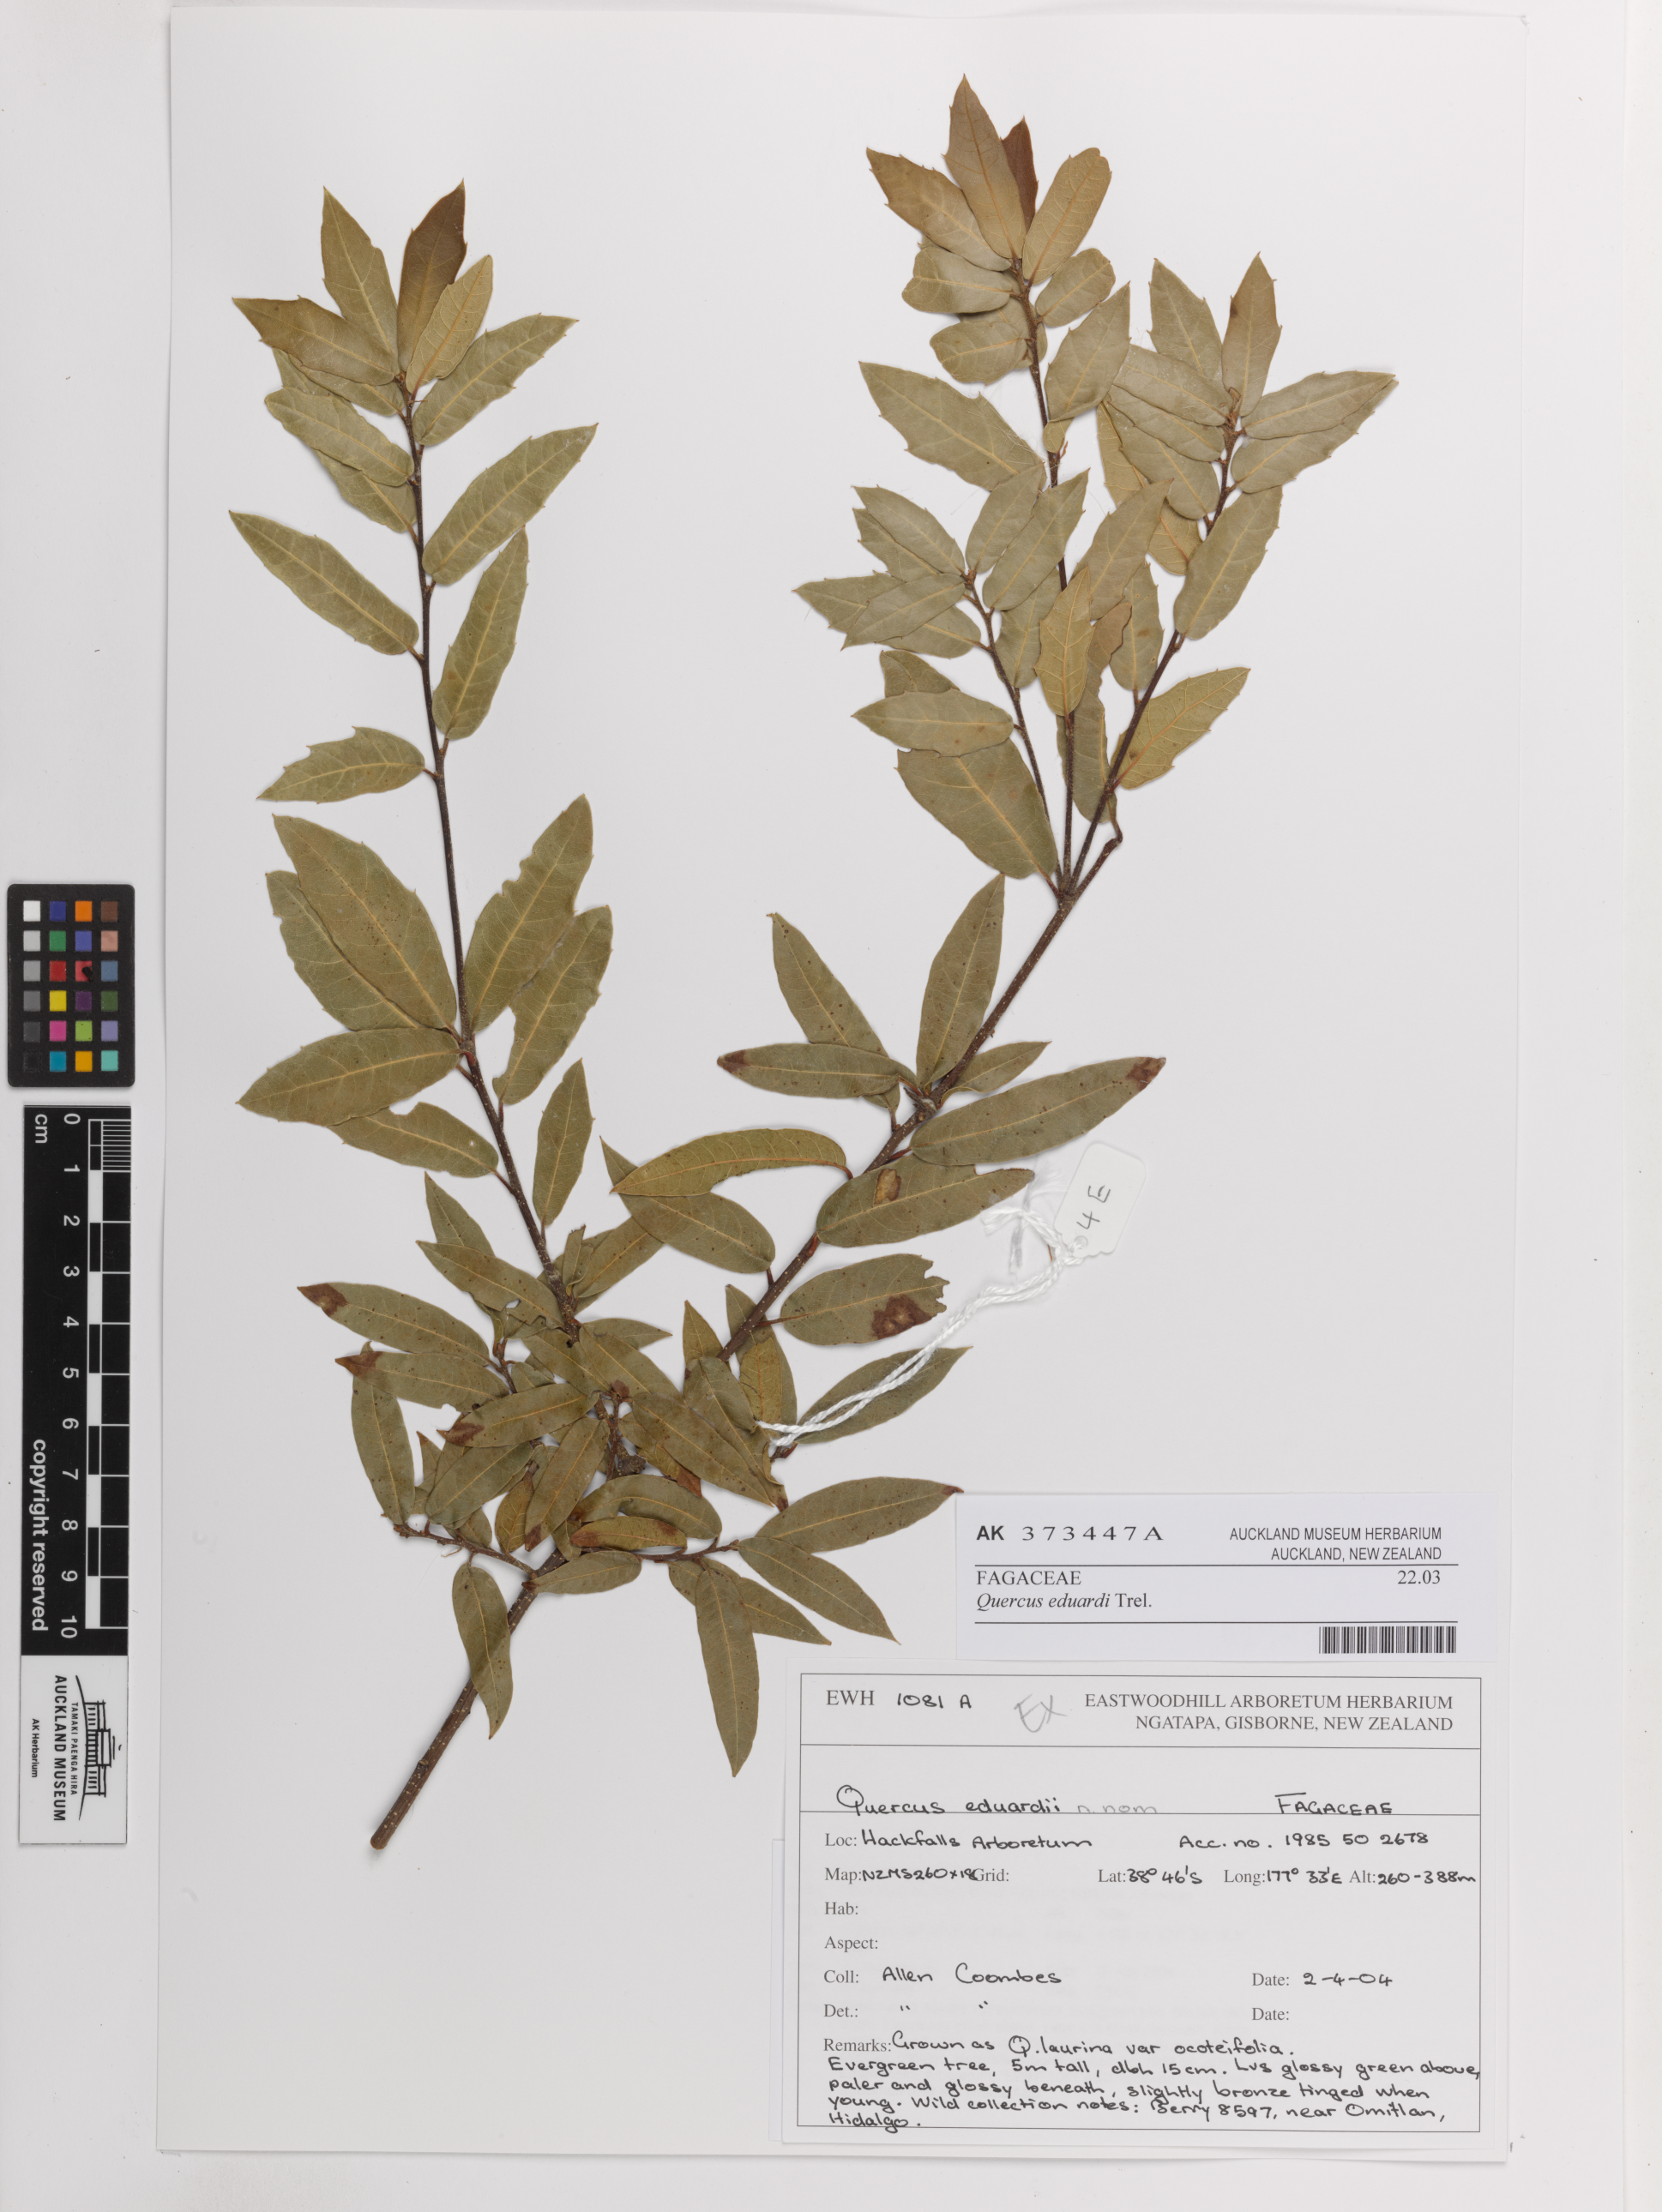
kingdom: Plantae
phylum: Tracheophyta
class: Magnoliopsida
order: Fagales
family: Fagaceae
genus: Quercus
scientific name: Quercus eduardi
